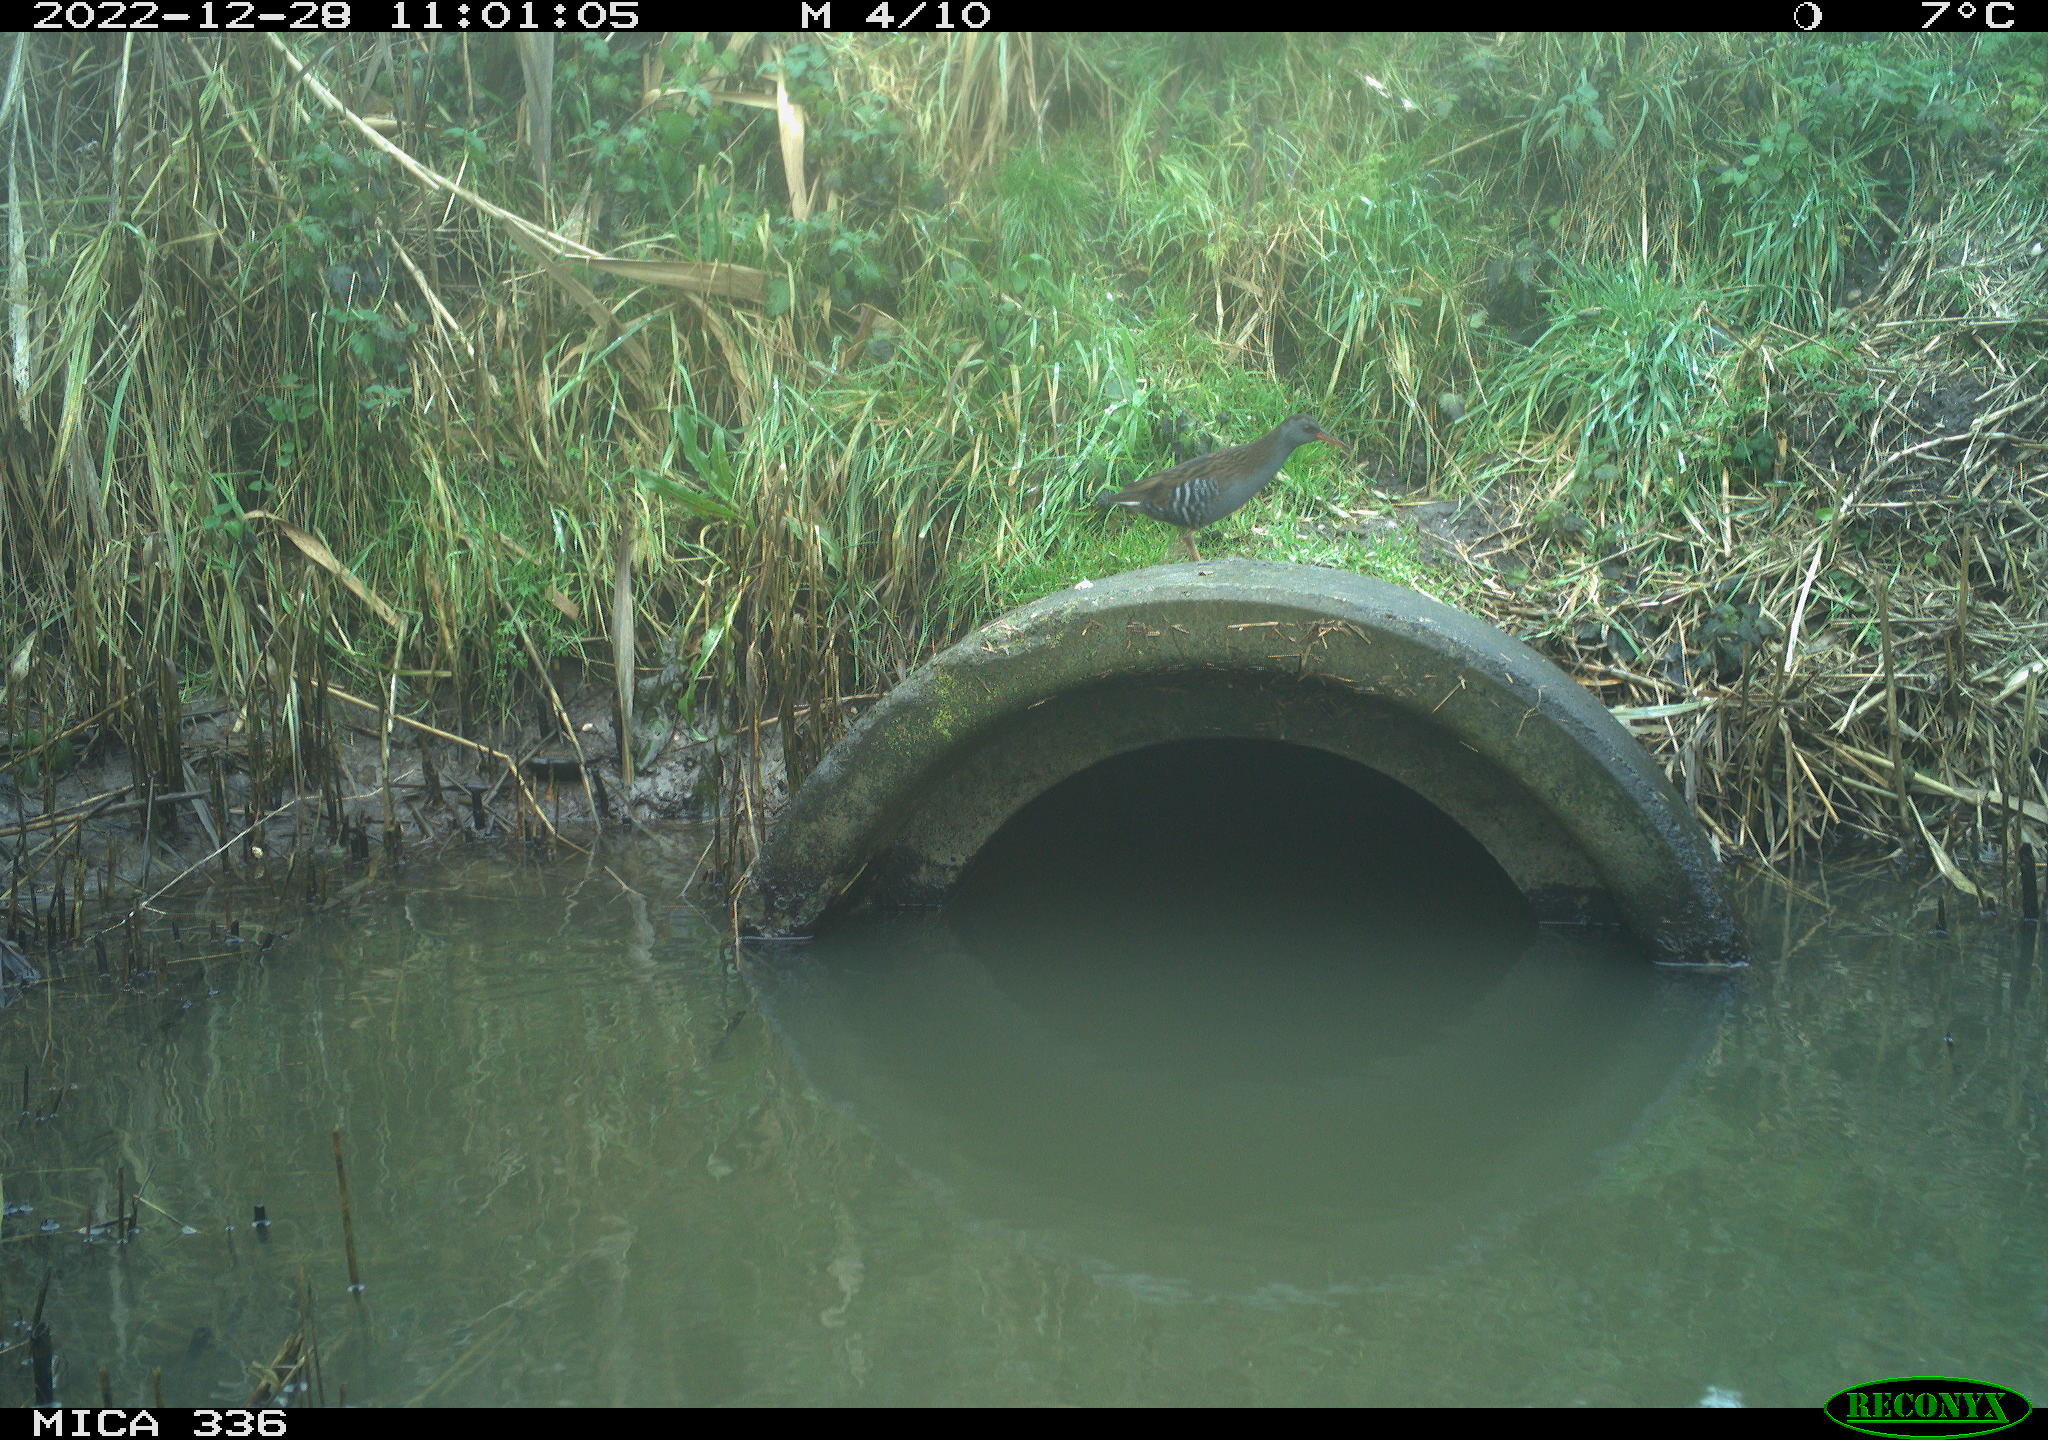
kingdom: Animalia
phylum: Chordata
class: Aves
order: Gruiformes
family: Rallidae
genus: Rallus
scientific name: Rallus aquaticus
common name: Water rail
